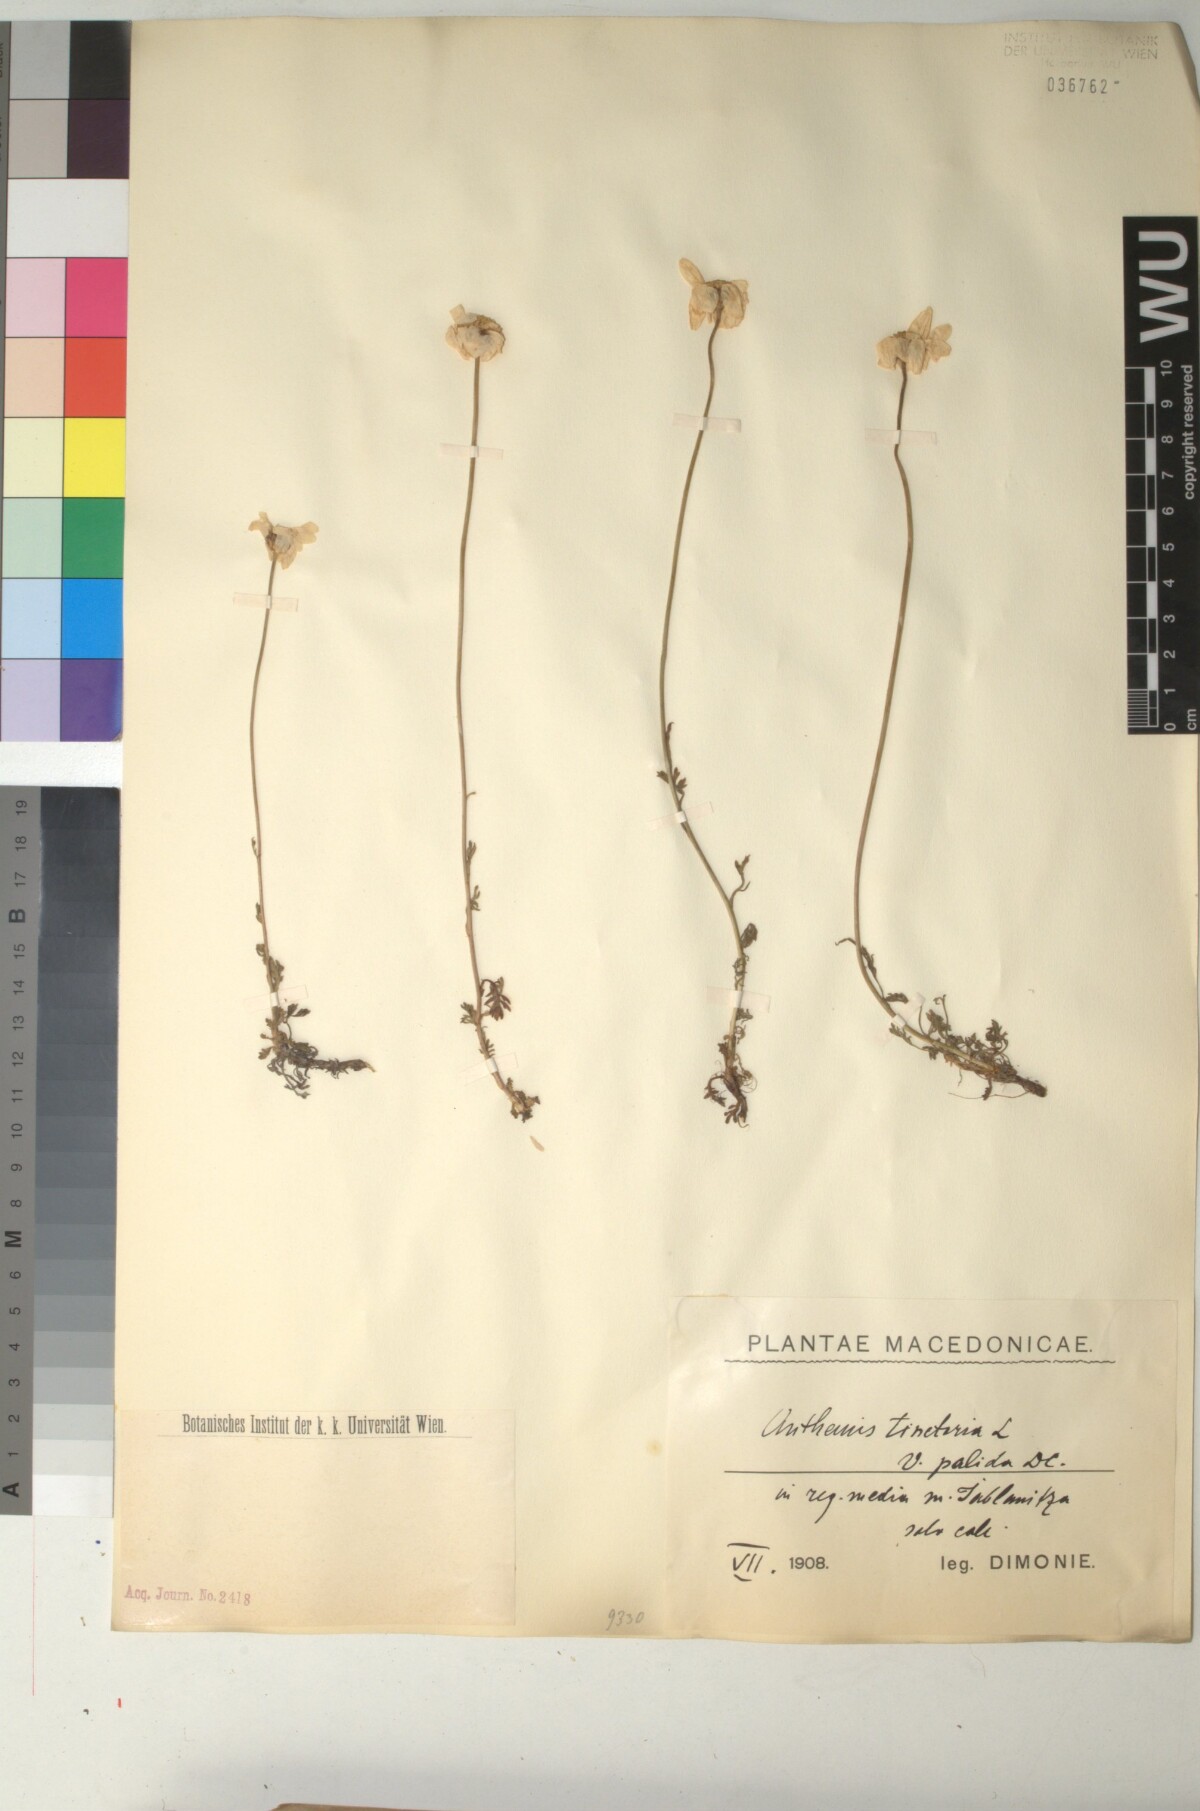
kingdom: Plantae
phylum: Tracheophyta
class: Magnoliopsida
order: Asterales
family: Asteraceae
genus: Cota
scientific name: Cota tinctoria
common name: Golden chamomile
